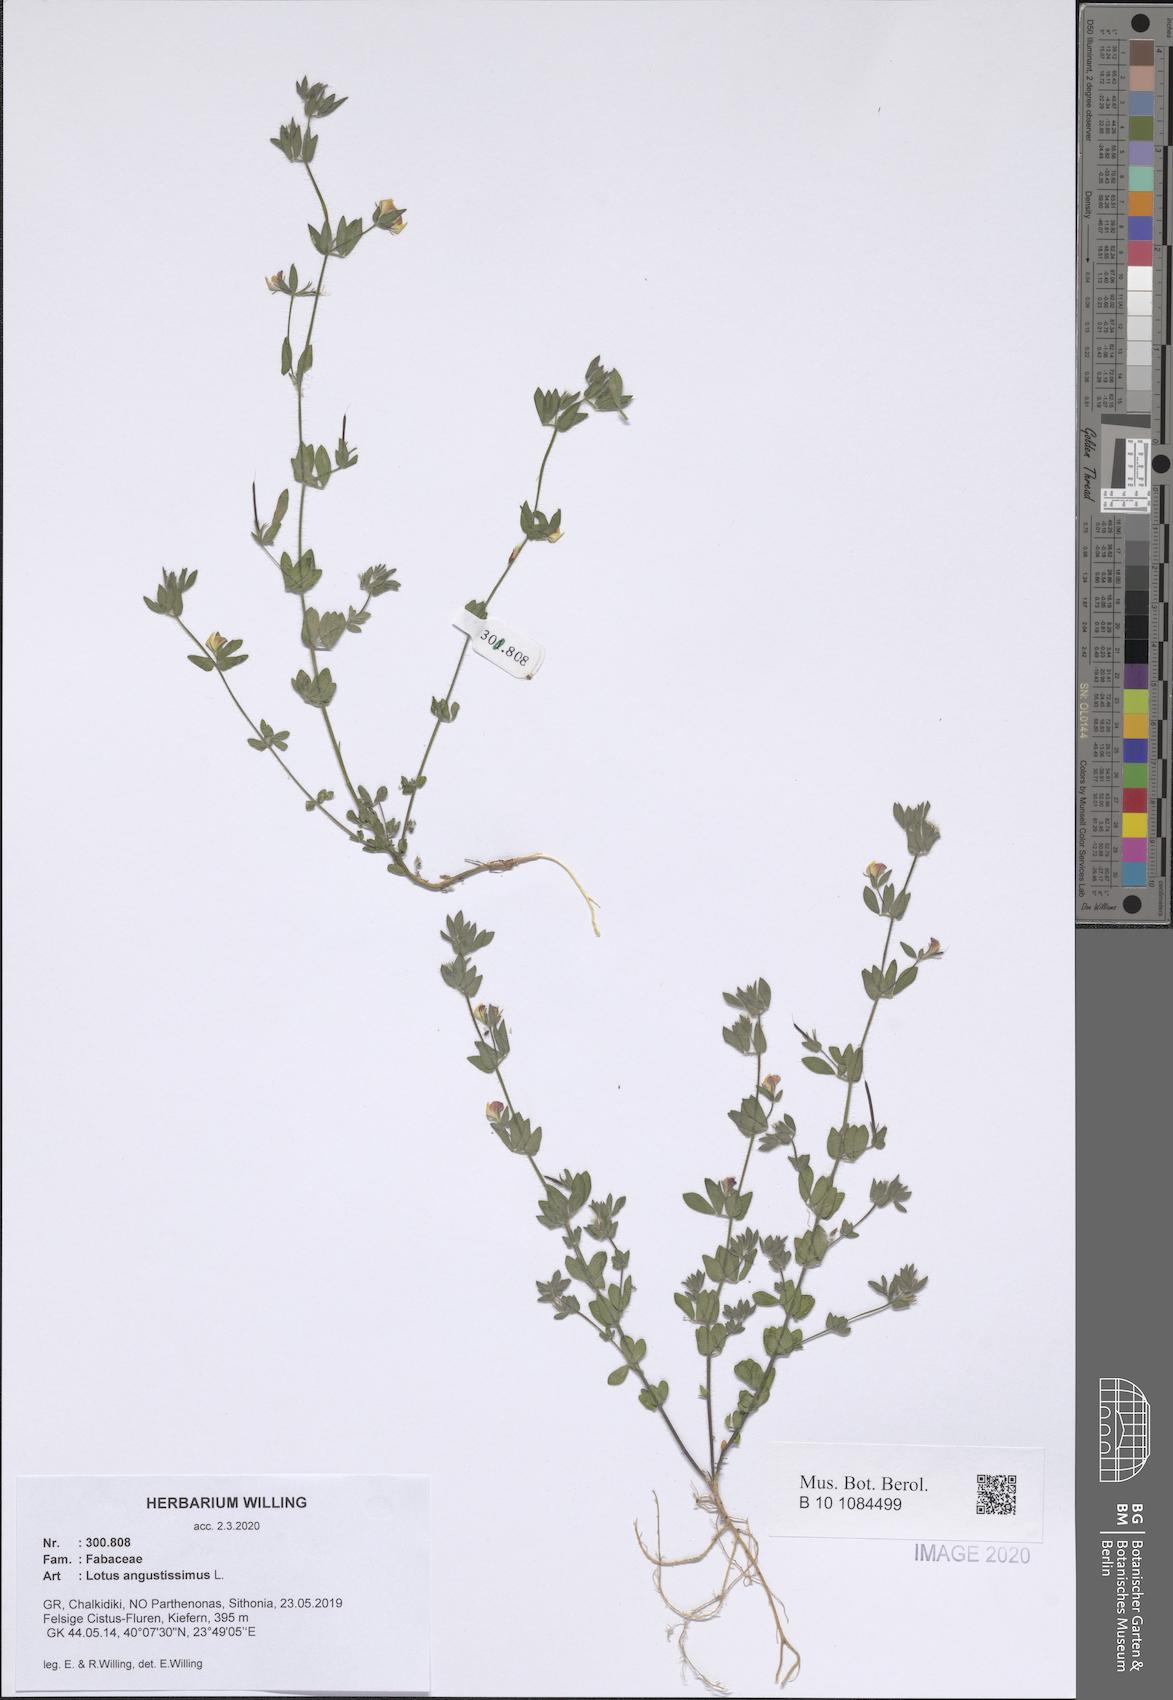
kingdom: Plantae
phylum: Tracheophyta
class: Magnoliopsida
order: Fabales
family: Fabaceae
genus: Lotus
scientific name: Lotus angustissimus
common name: Slender bird's-foot trefoil
